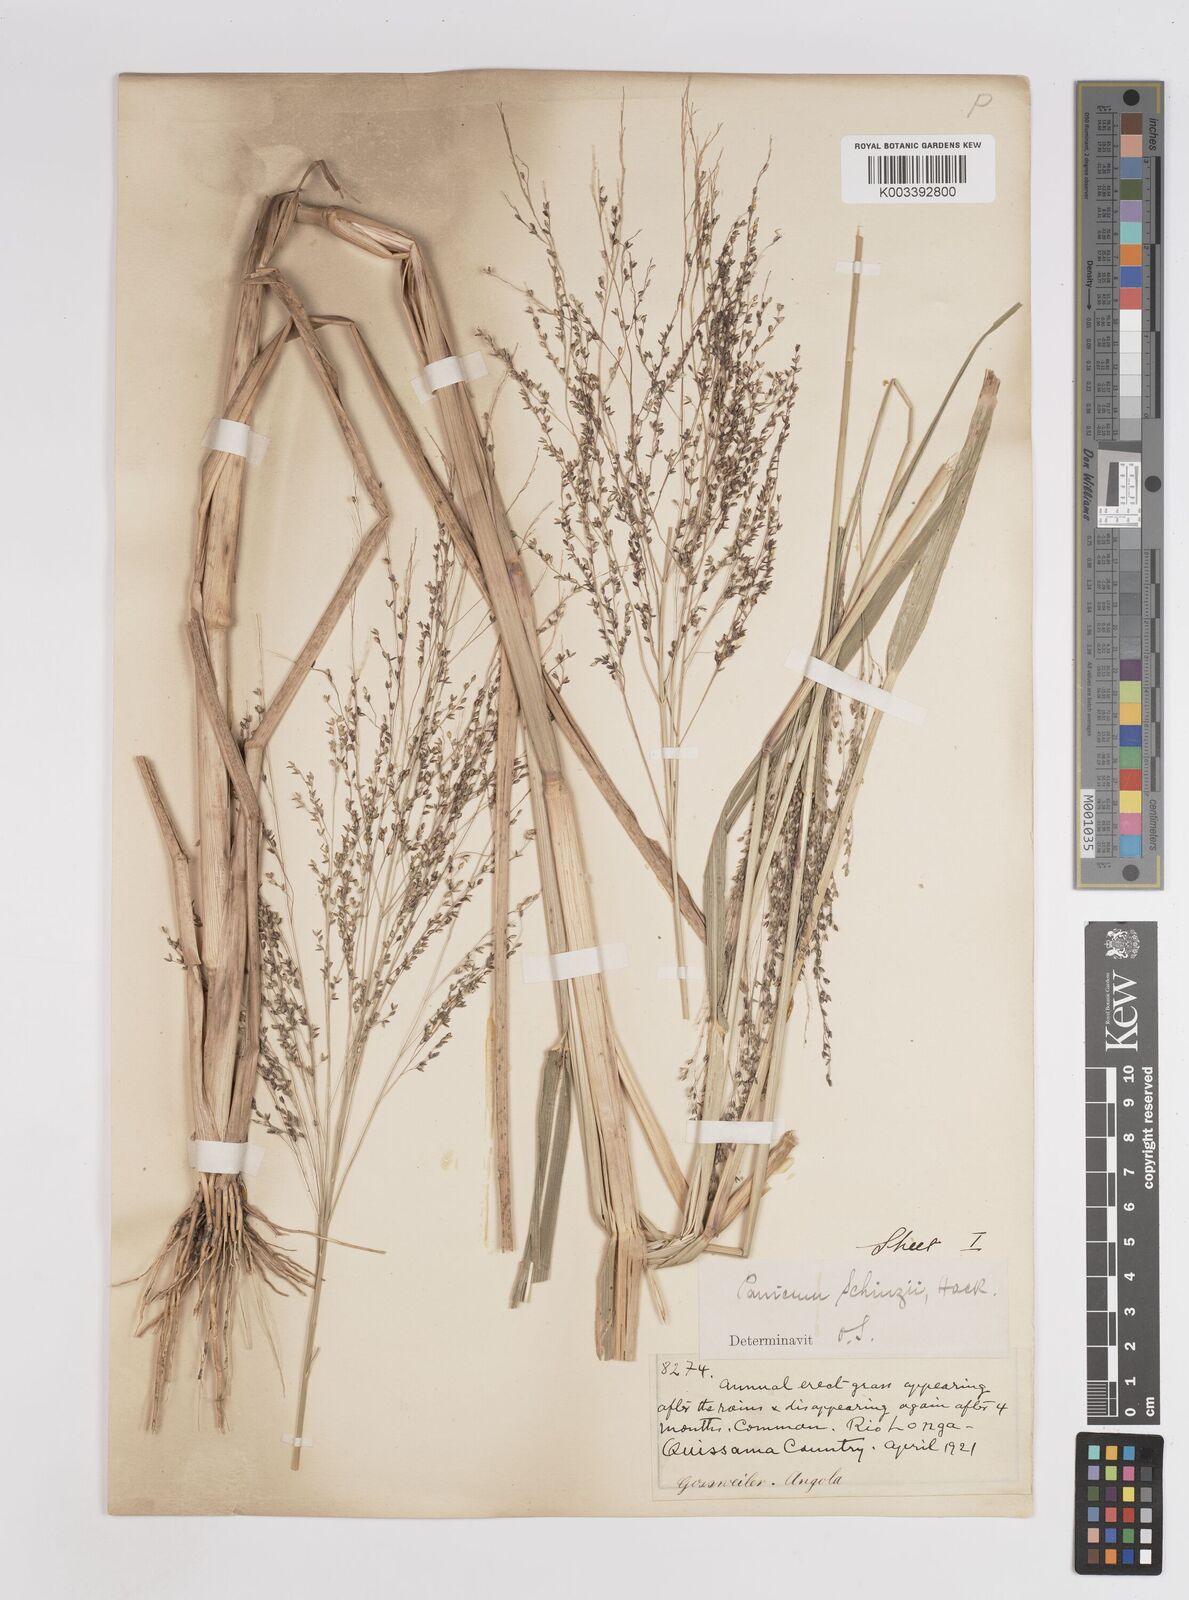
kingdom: Plantae
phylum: Tracheophyta
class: Liliopsida
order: Poales
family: Poaceae
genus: Panicum
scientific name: Panicum schinzii
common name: Sweet grass
